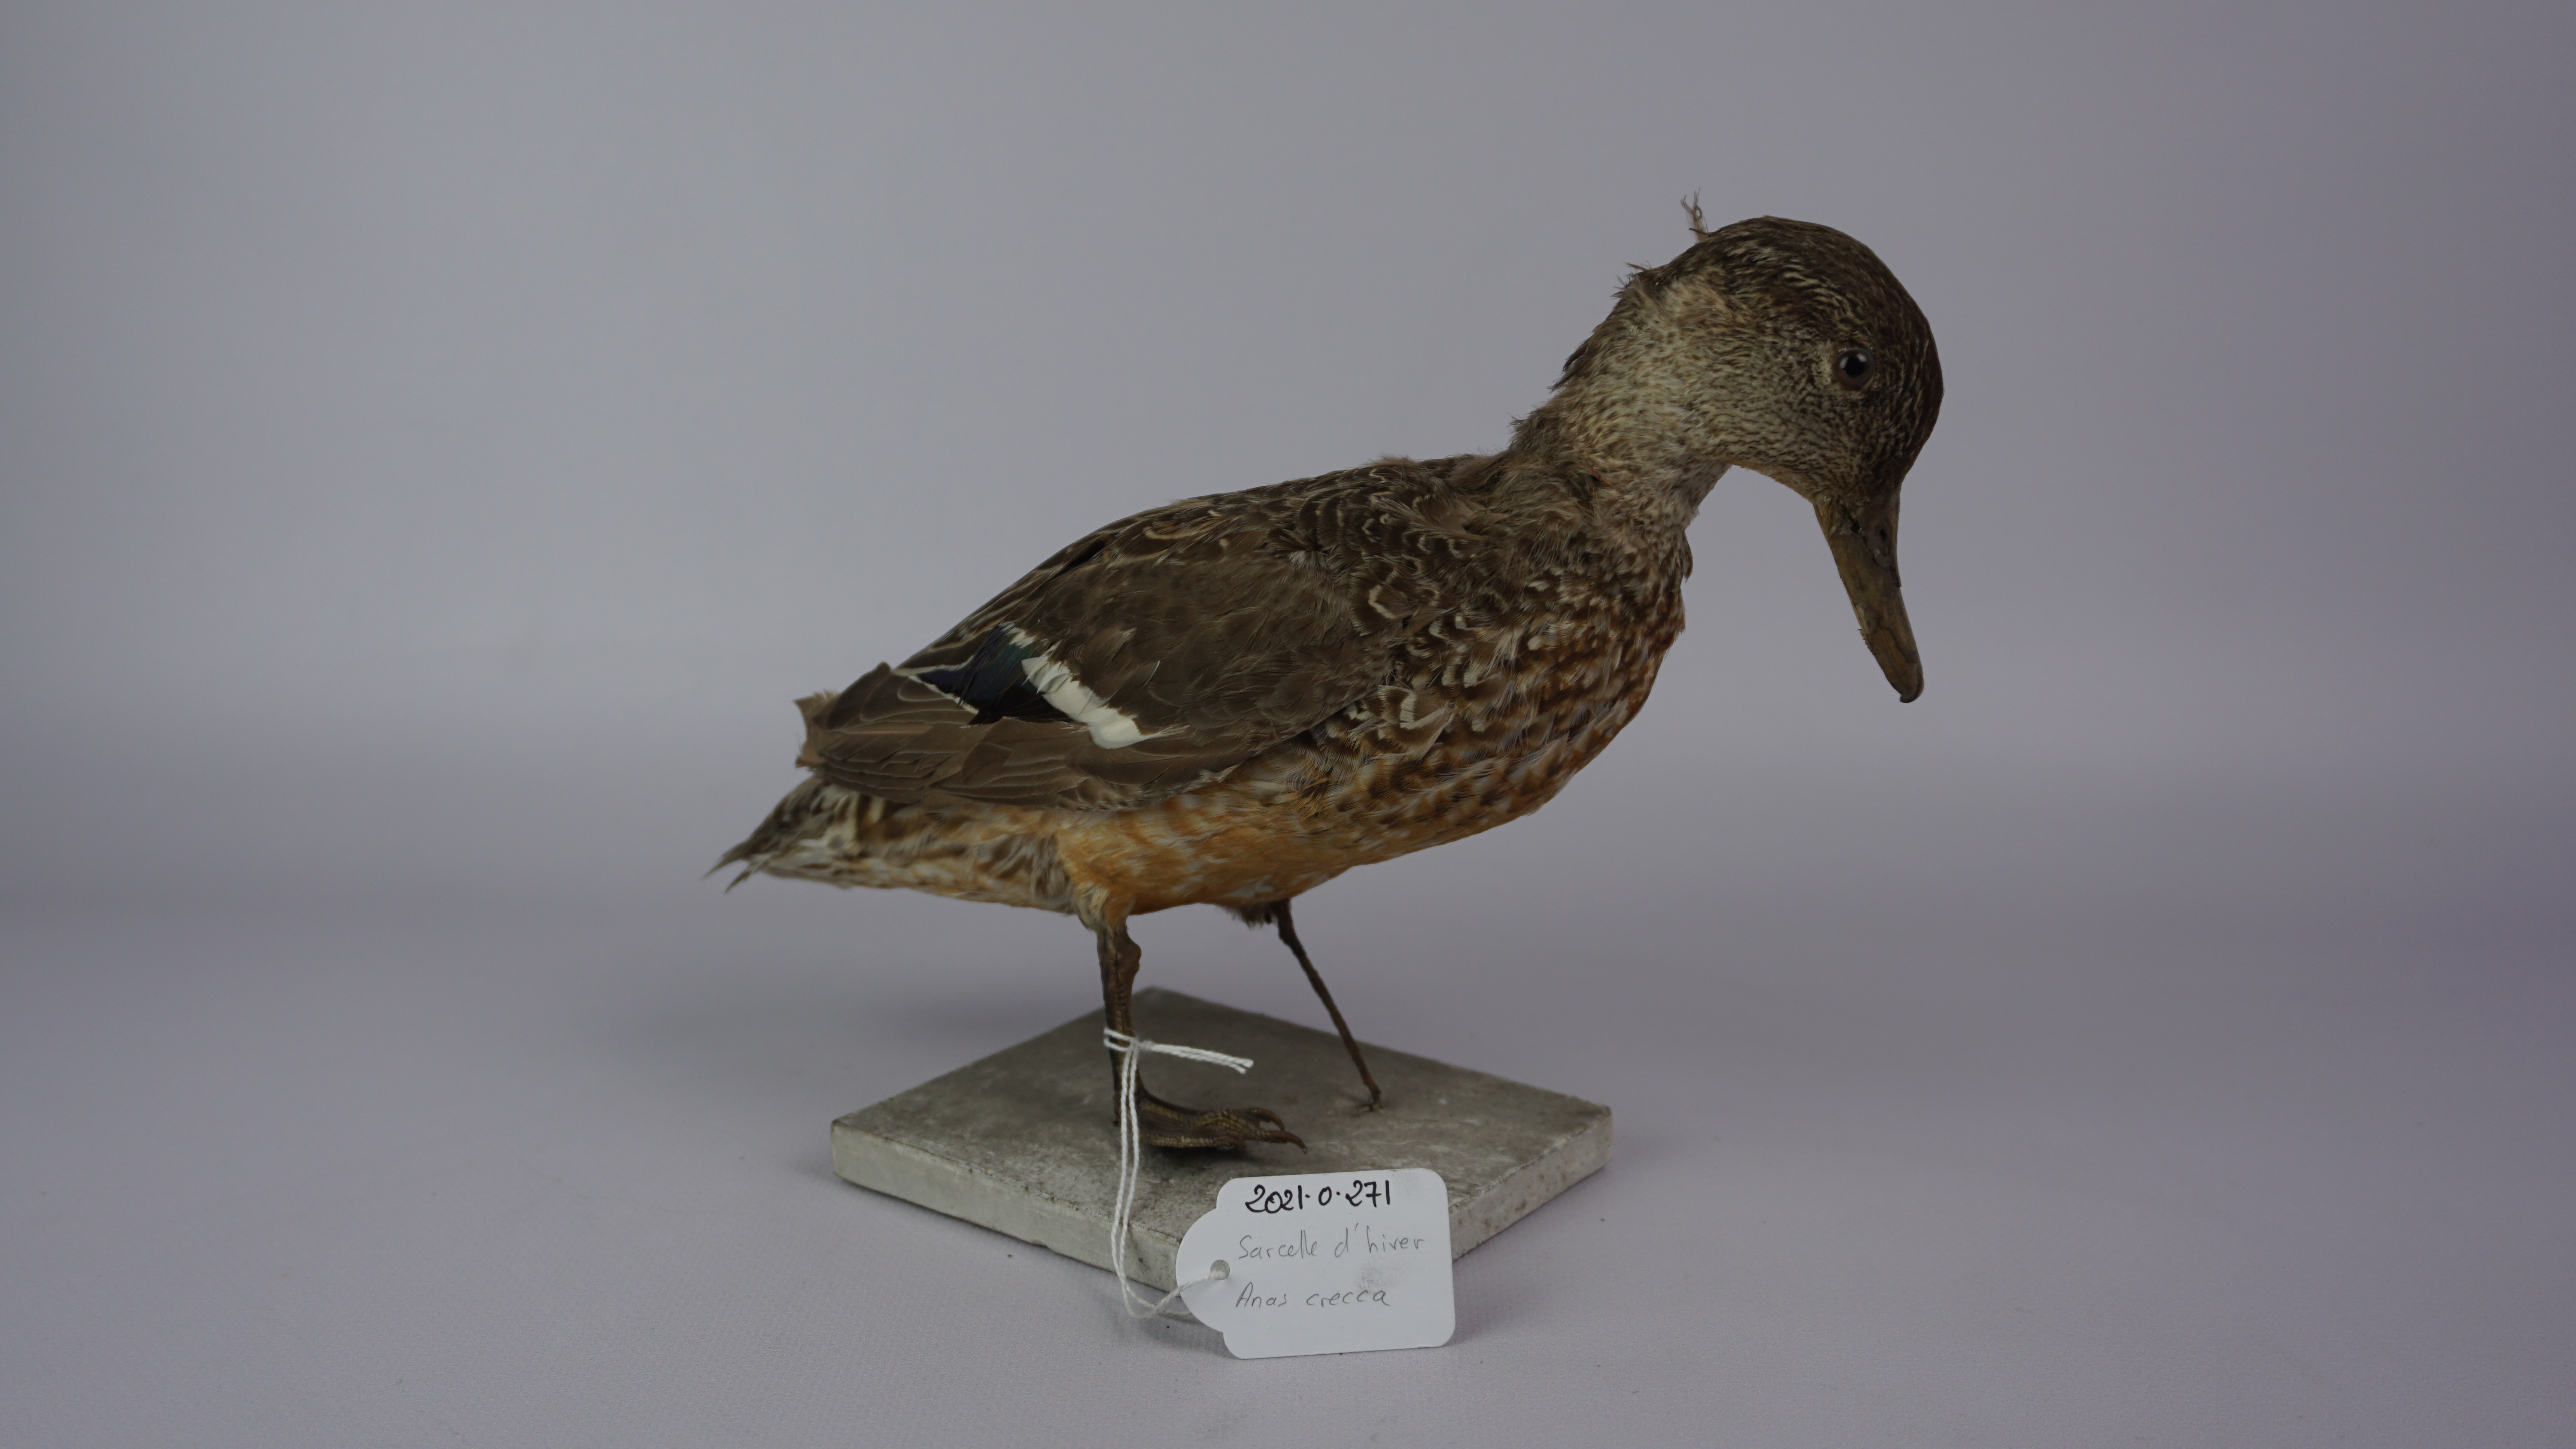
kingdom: Animalia
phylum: Chordata
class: Aves
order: Anseriformes
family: Anatidae
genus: Anas
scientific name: Anas crecca
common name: Eurasian teal
